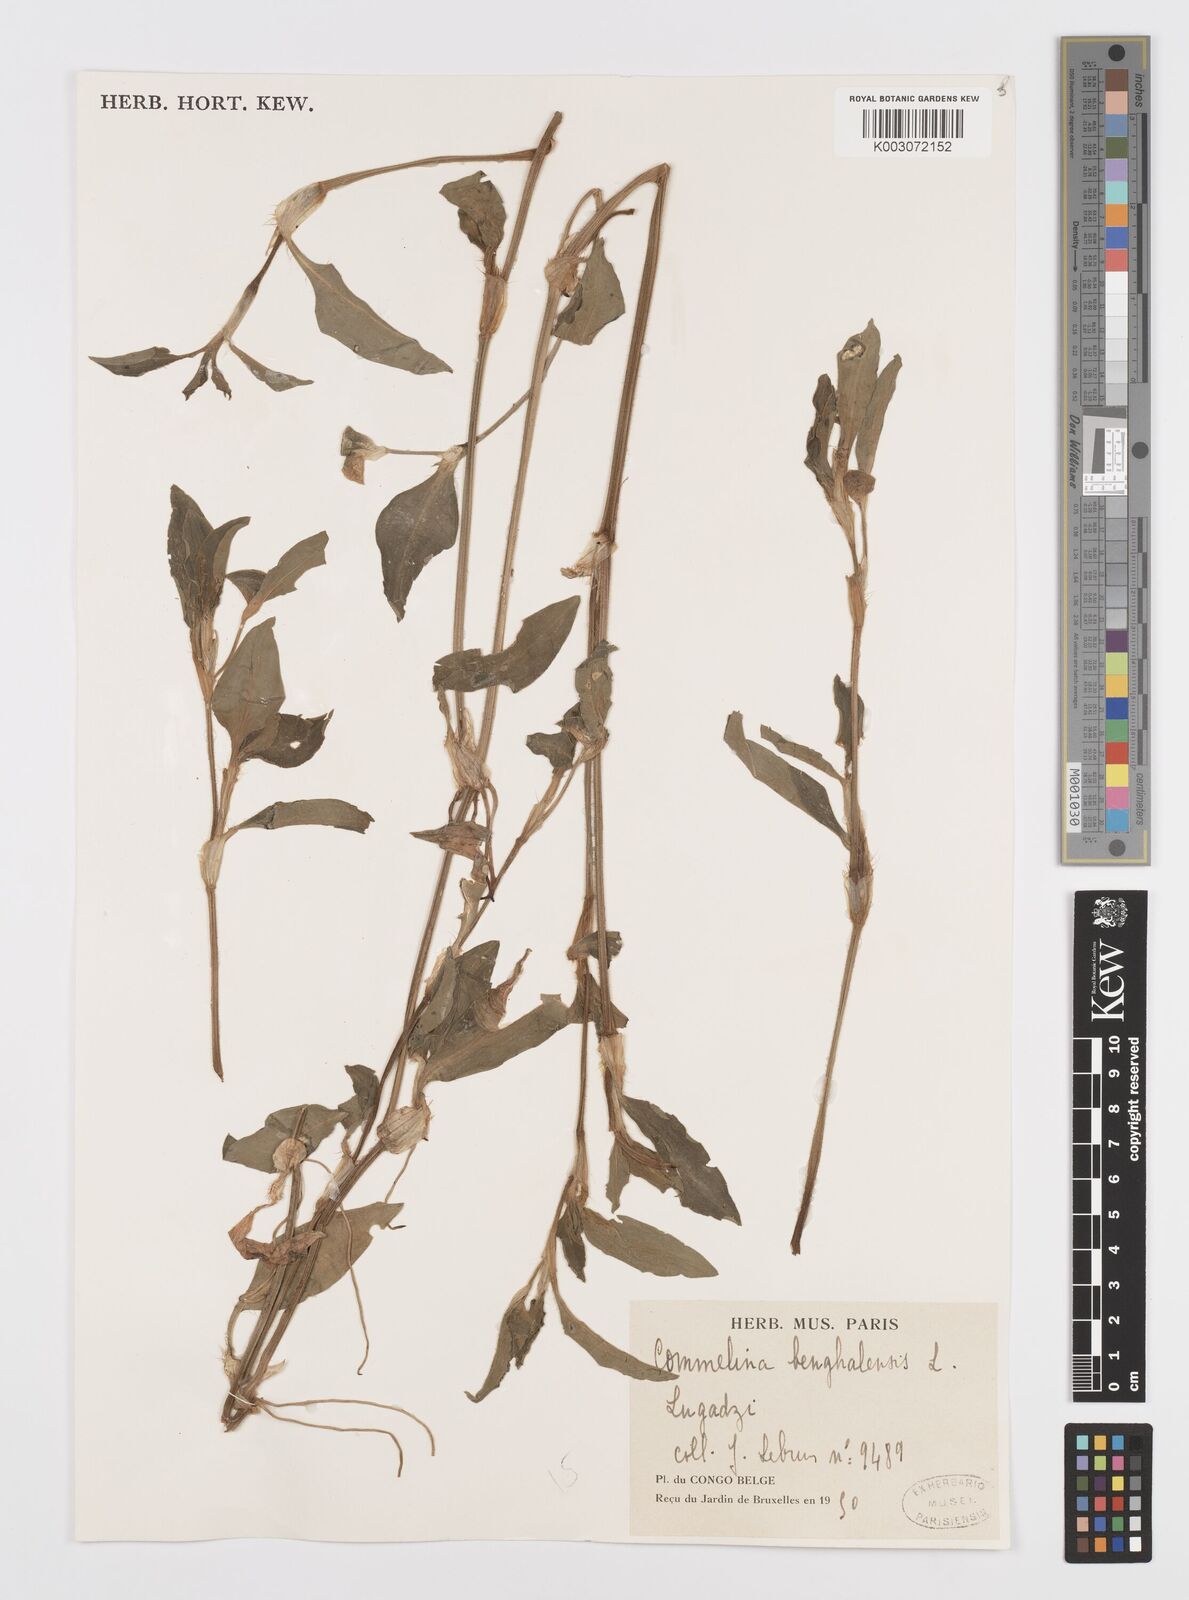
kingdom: Plantae
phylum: Tracheophyta
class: Liliopsida
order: Commelinales
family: Commelinaceae
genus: Commelina
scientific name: Commelina benghalensis
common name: Jio
